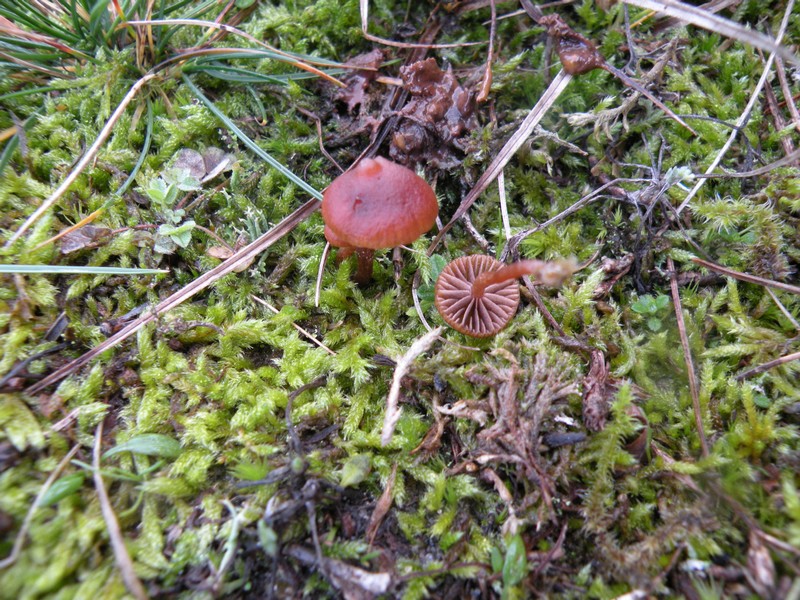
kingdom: Fungi
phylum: Basidiomycota
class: Agaricomycetes
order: Agaricales
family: Strophariaceae
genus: Deconica
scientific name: Deconica montana
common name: rødbrun stråhat
